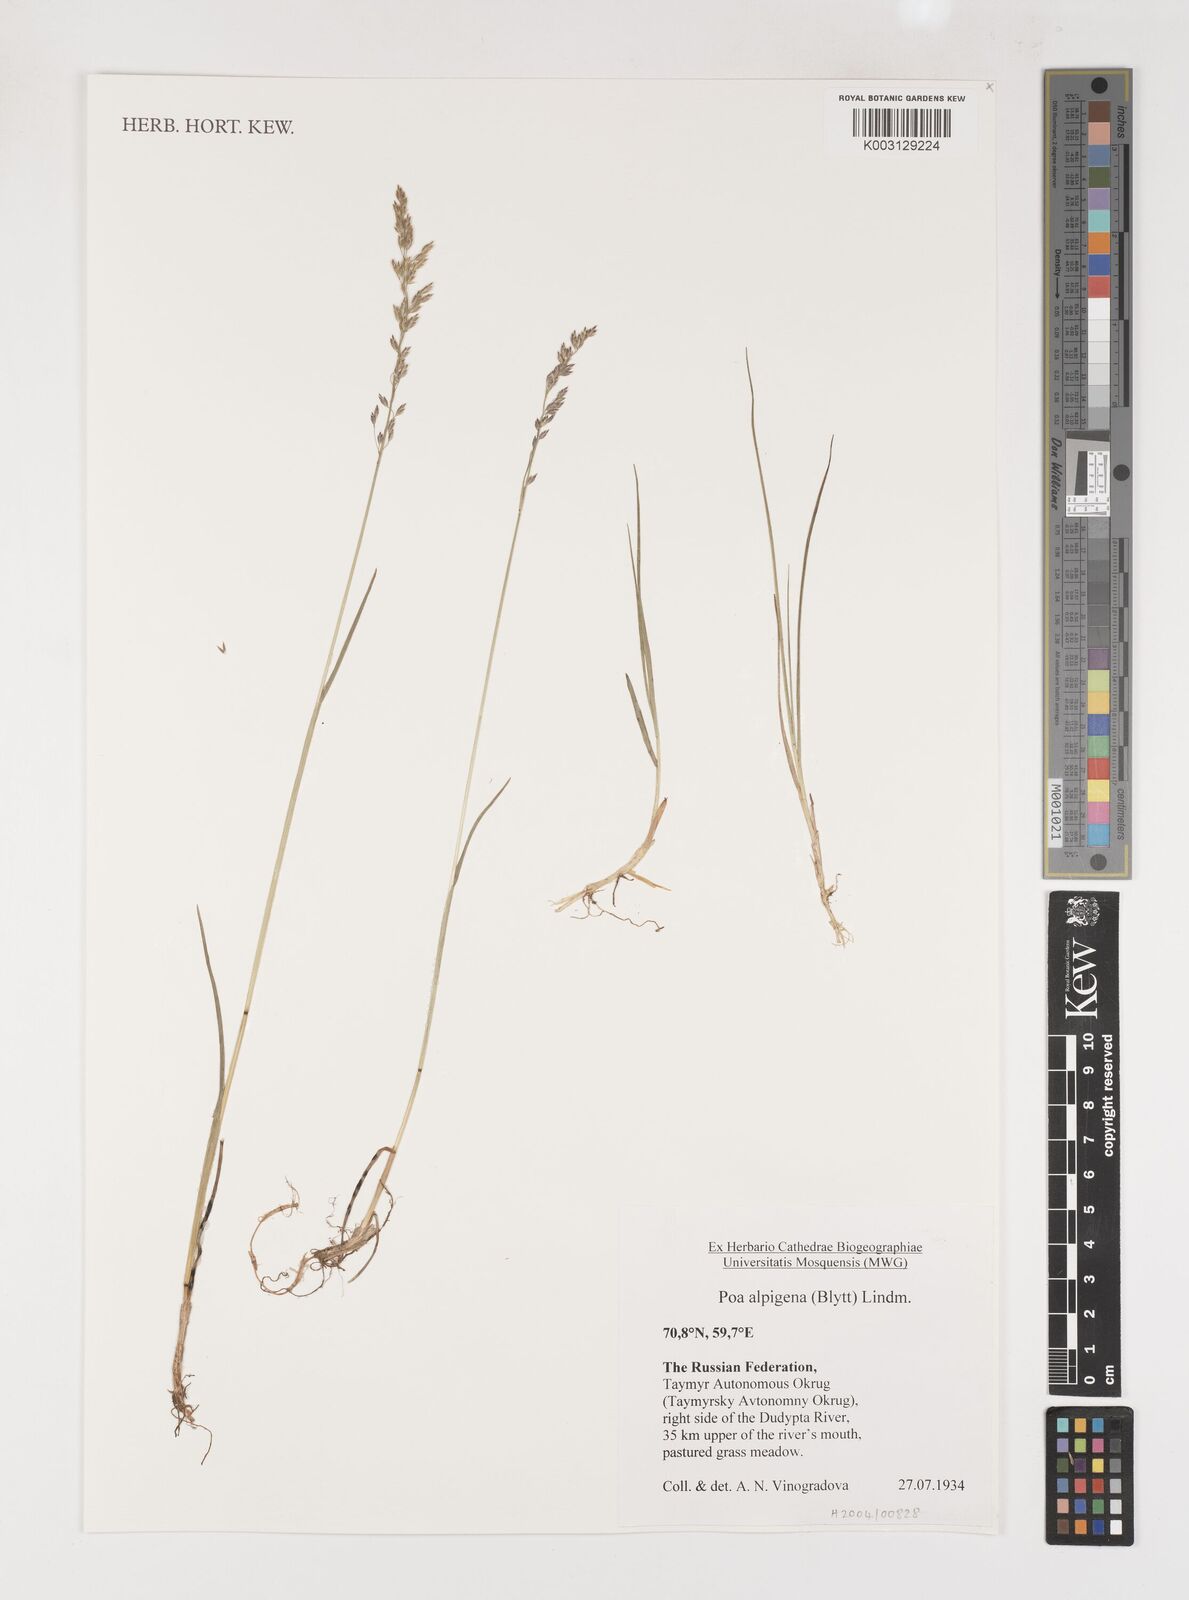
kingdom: Plantae
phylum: Tracheophyta
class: Liliopsida
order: Poales
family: Poaceae
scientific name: Poaceae
